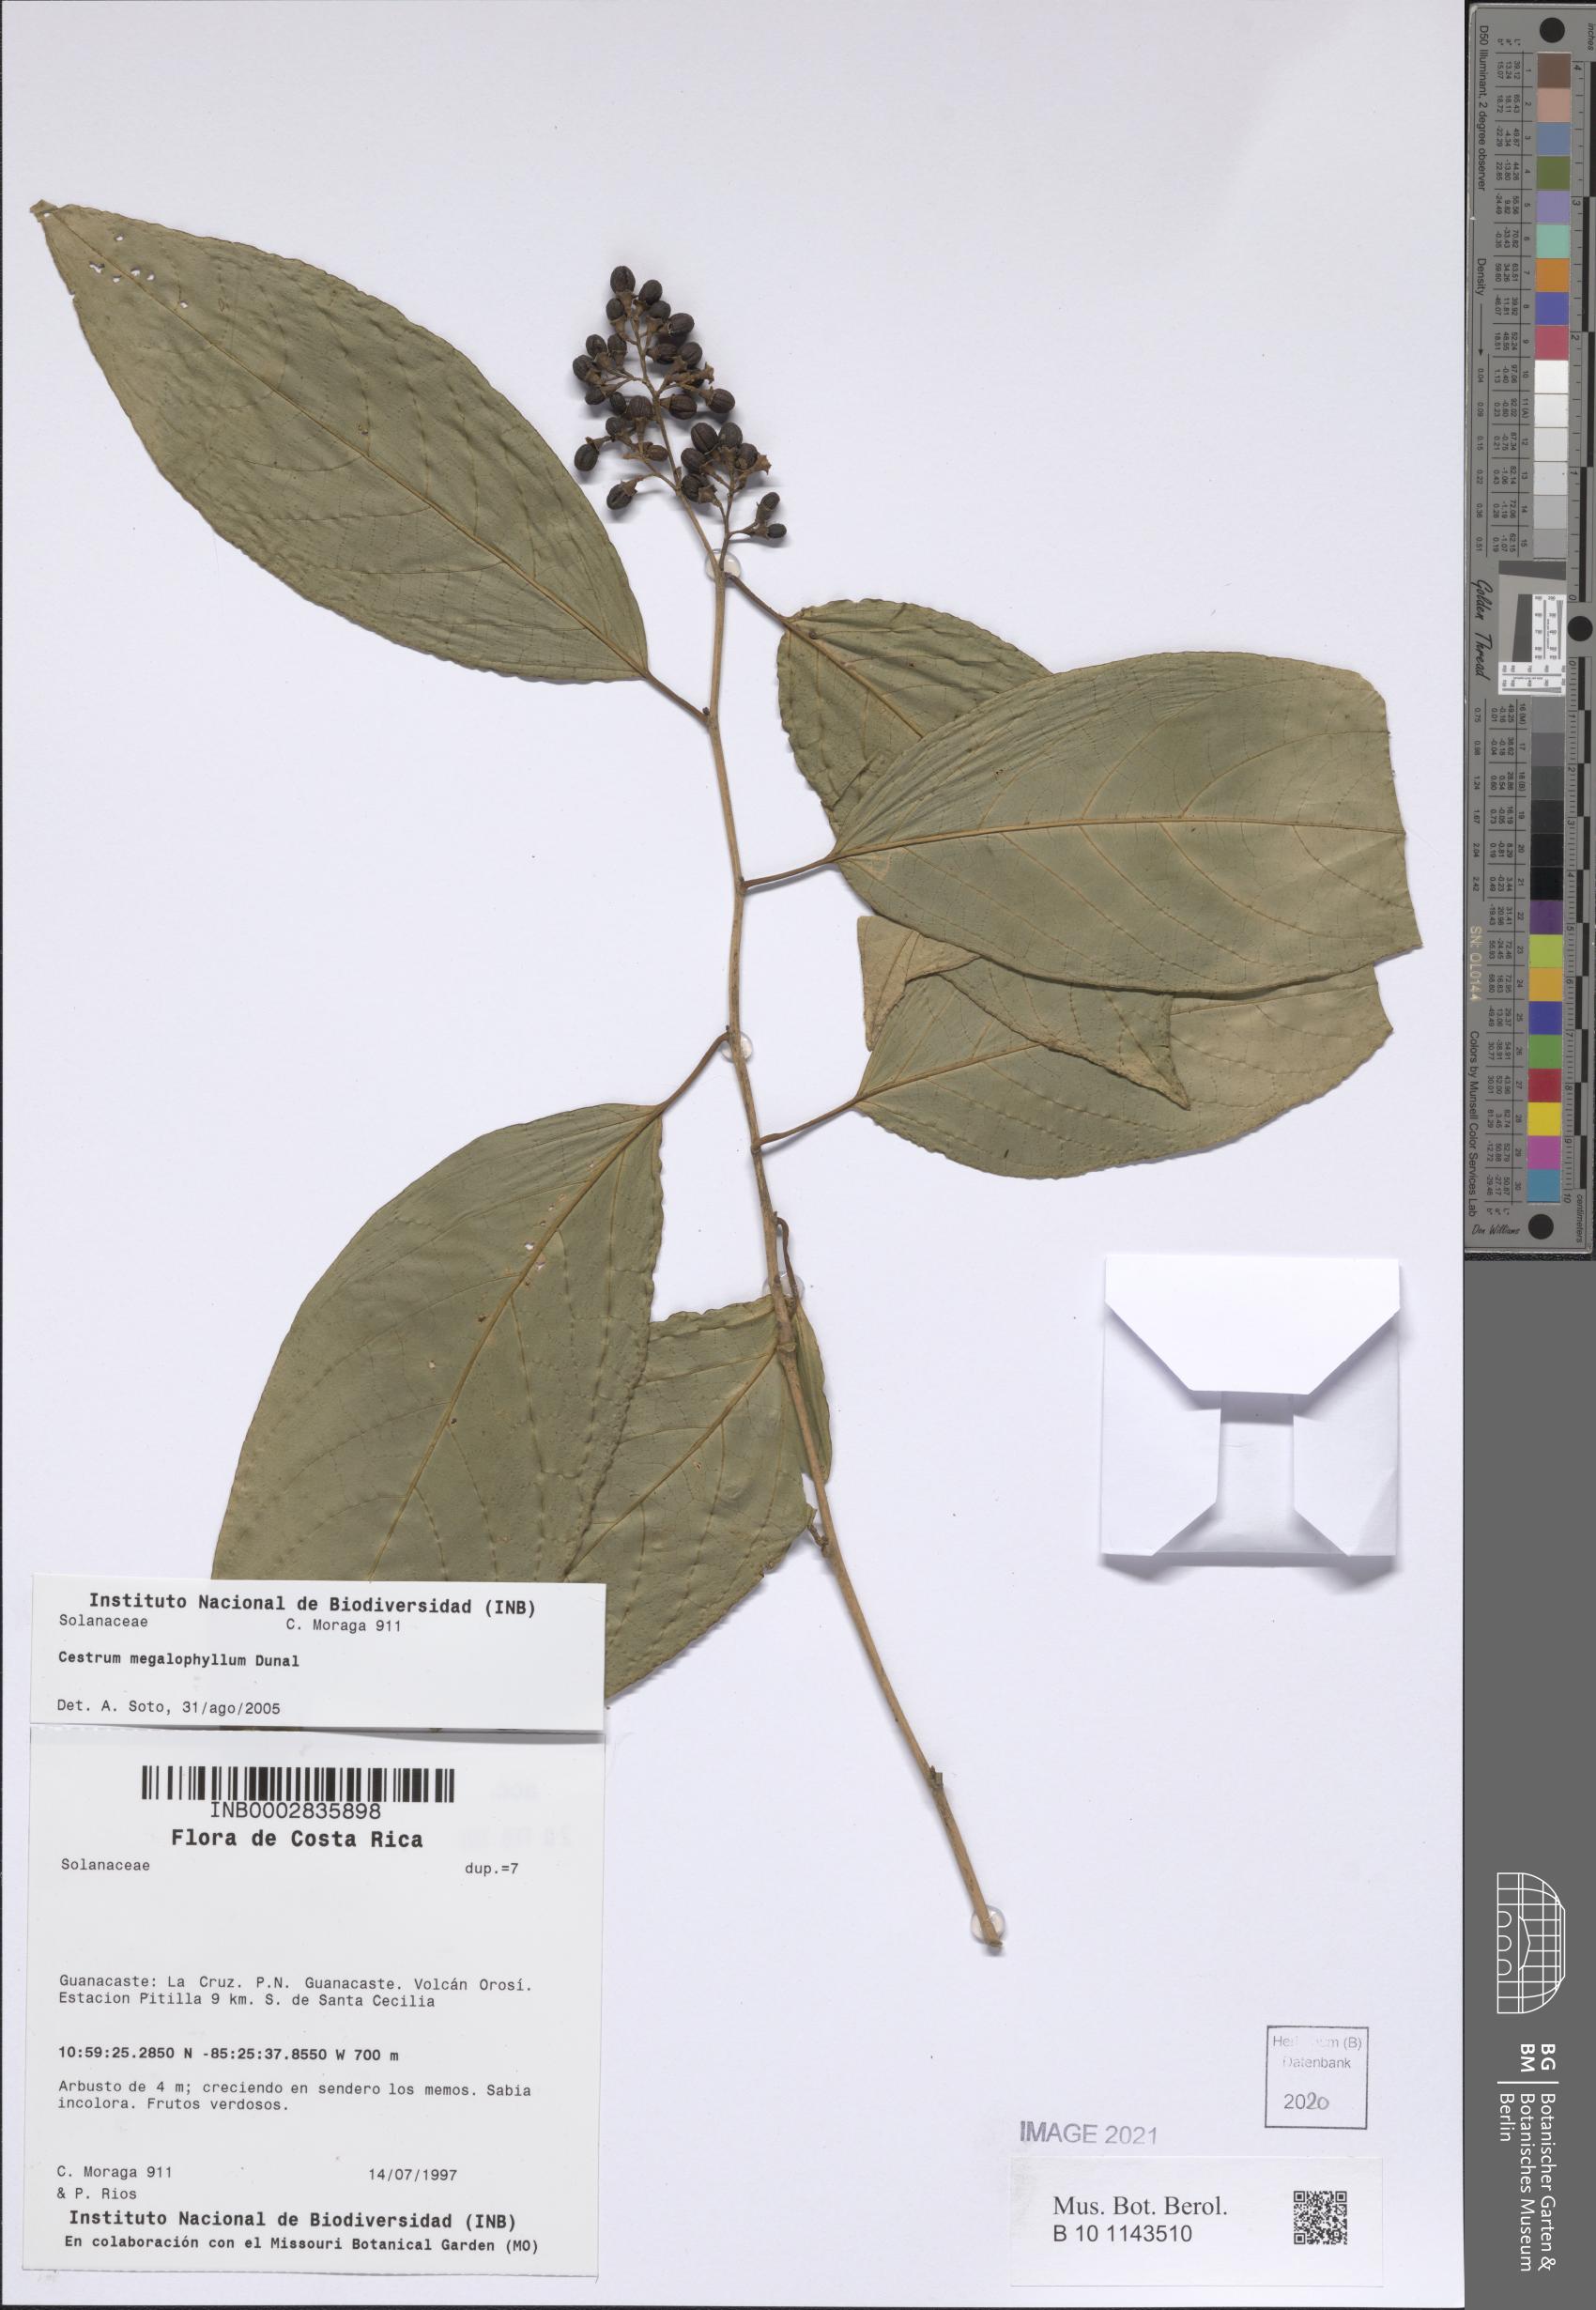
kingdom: Plantae
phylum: Tracheophyta
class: Magnoliopsida
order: Solanales
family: Solanaceae
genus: Cestrum
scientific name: Cestrum megalophyllum
